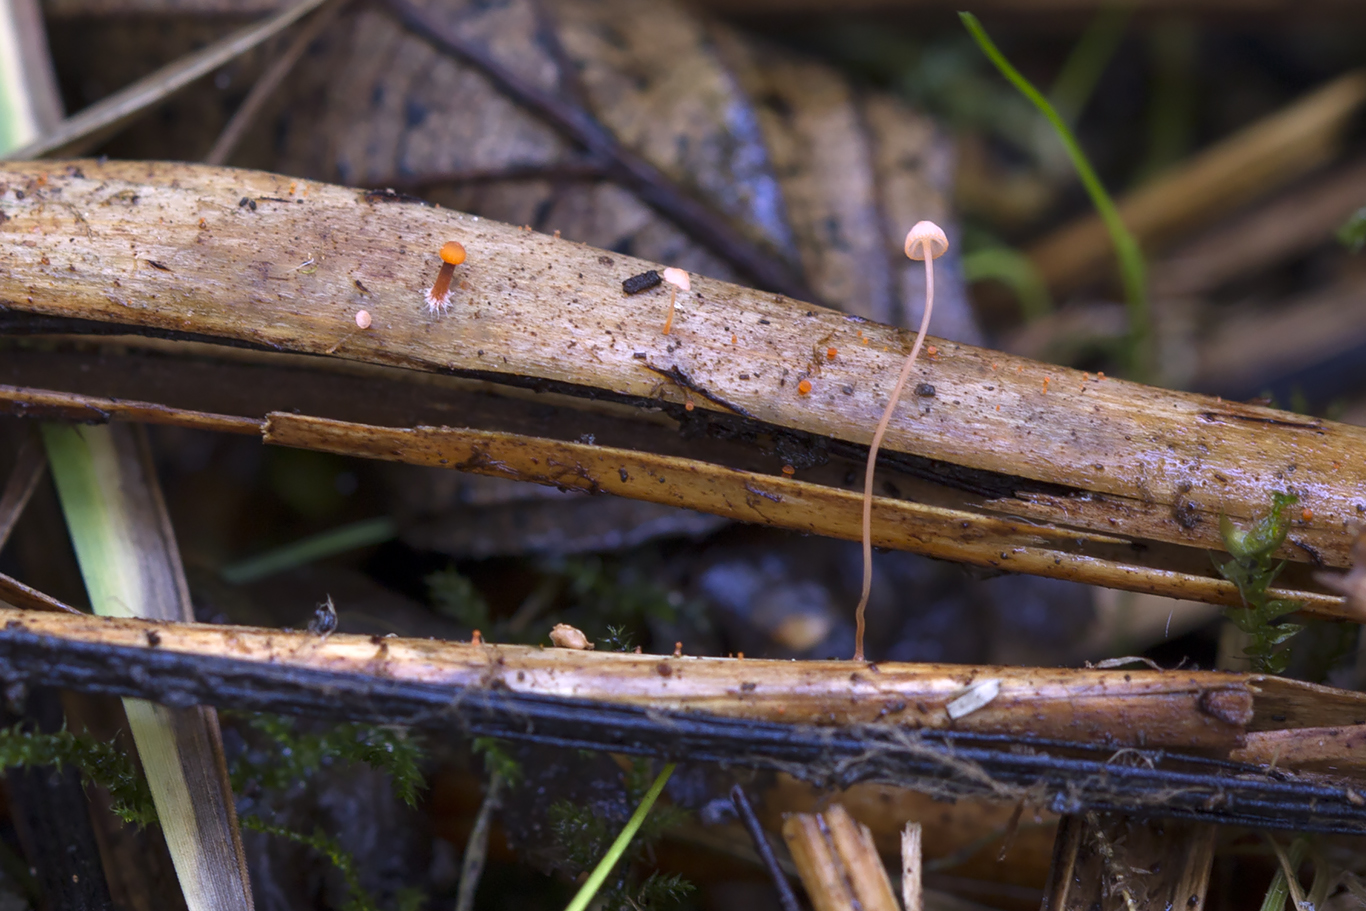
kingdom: Fungi
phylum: Basidiomycota
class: Agaricomycetes
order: Agaricales
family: Mycenaceae
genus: Mycena
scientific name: Mycena pterigena
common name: bregne-huesvamp
